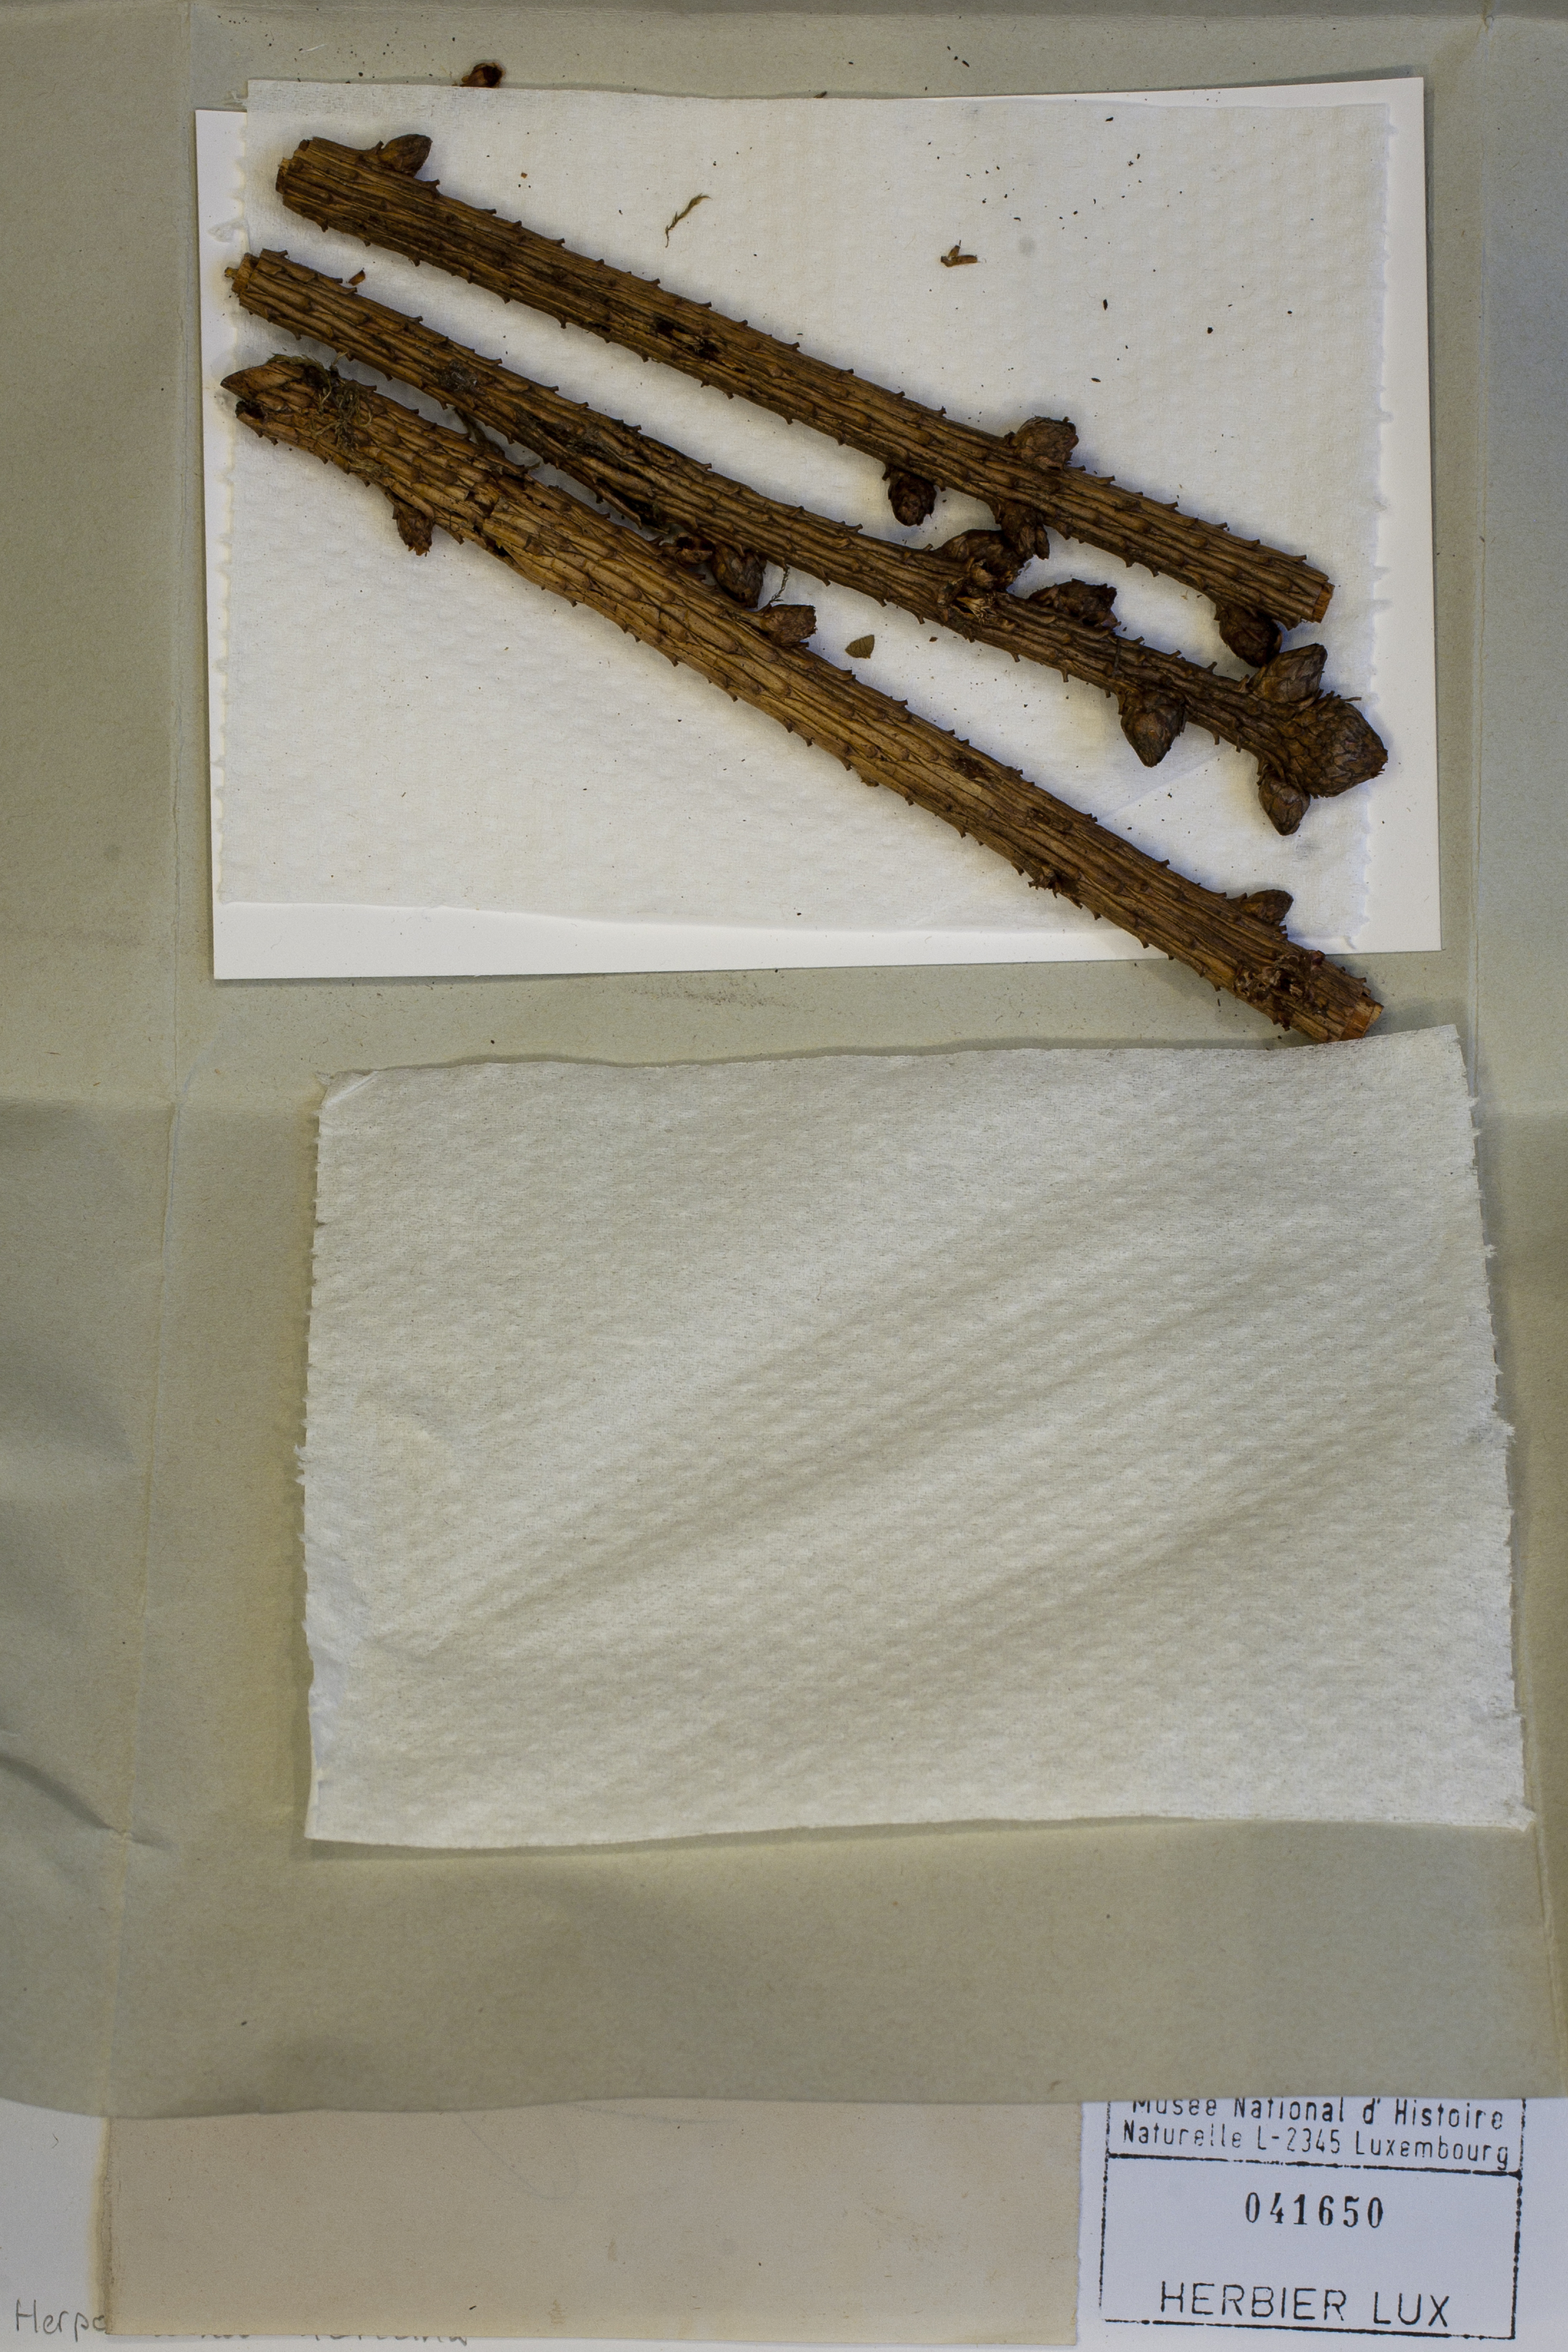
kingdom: Fungi
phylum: Ascomycota
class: Dothideomycetes
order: Pleosporales
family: Melanommataceae
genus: Herpotrichia
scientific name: Herpotrichia laricina
